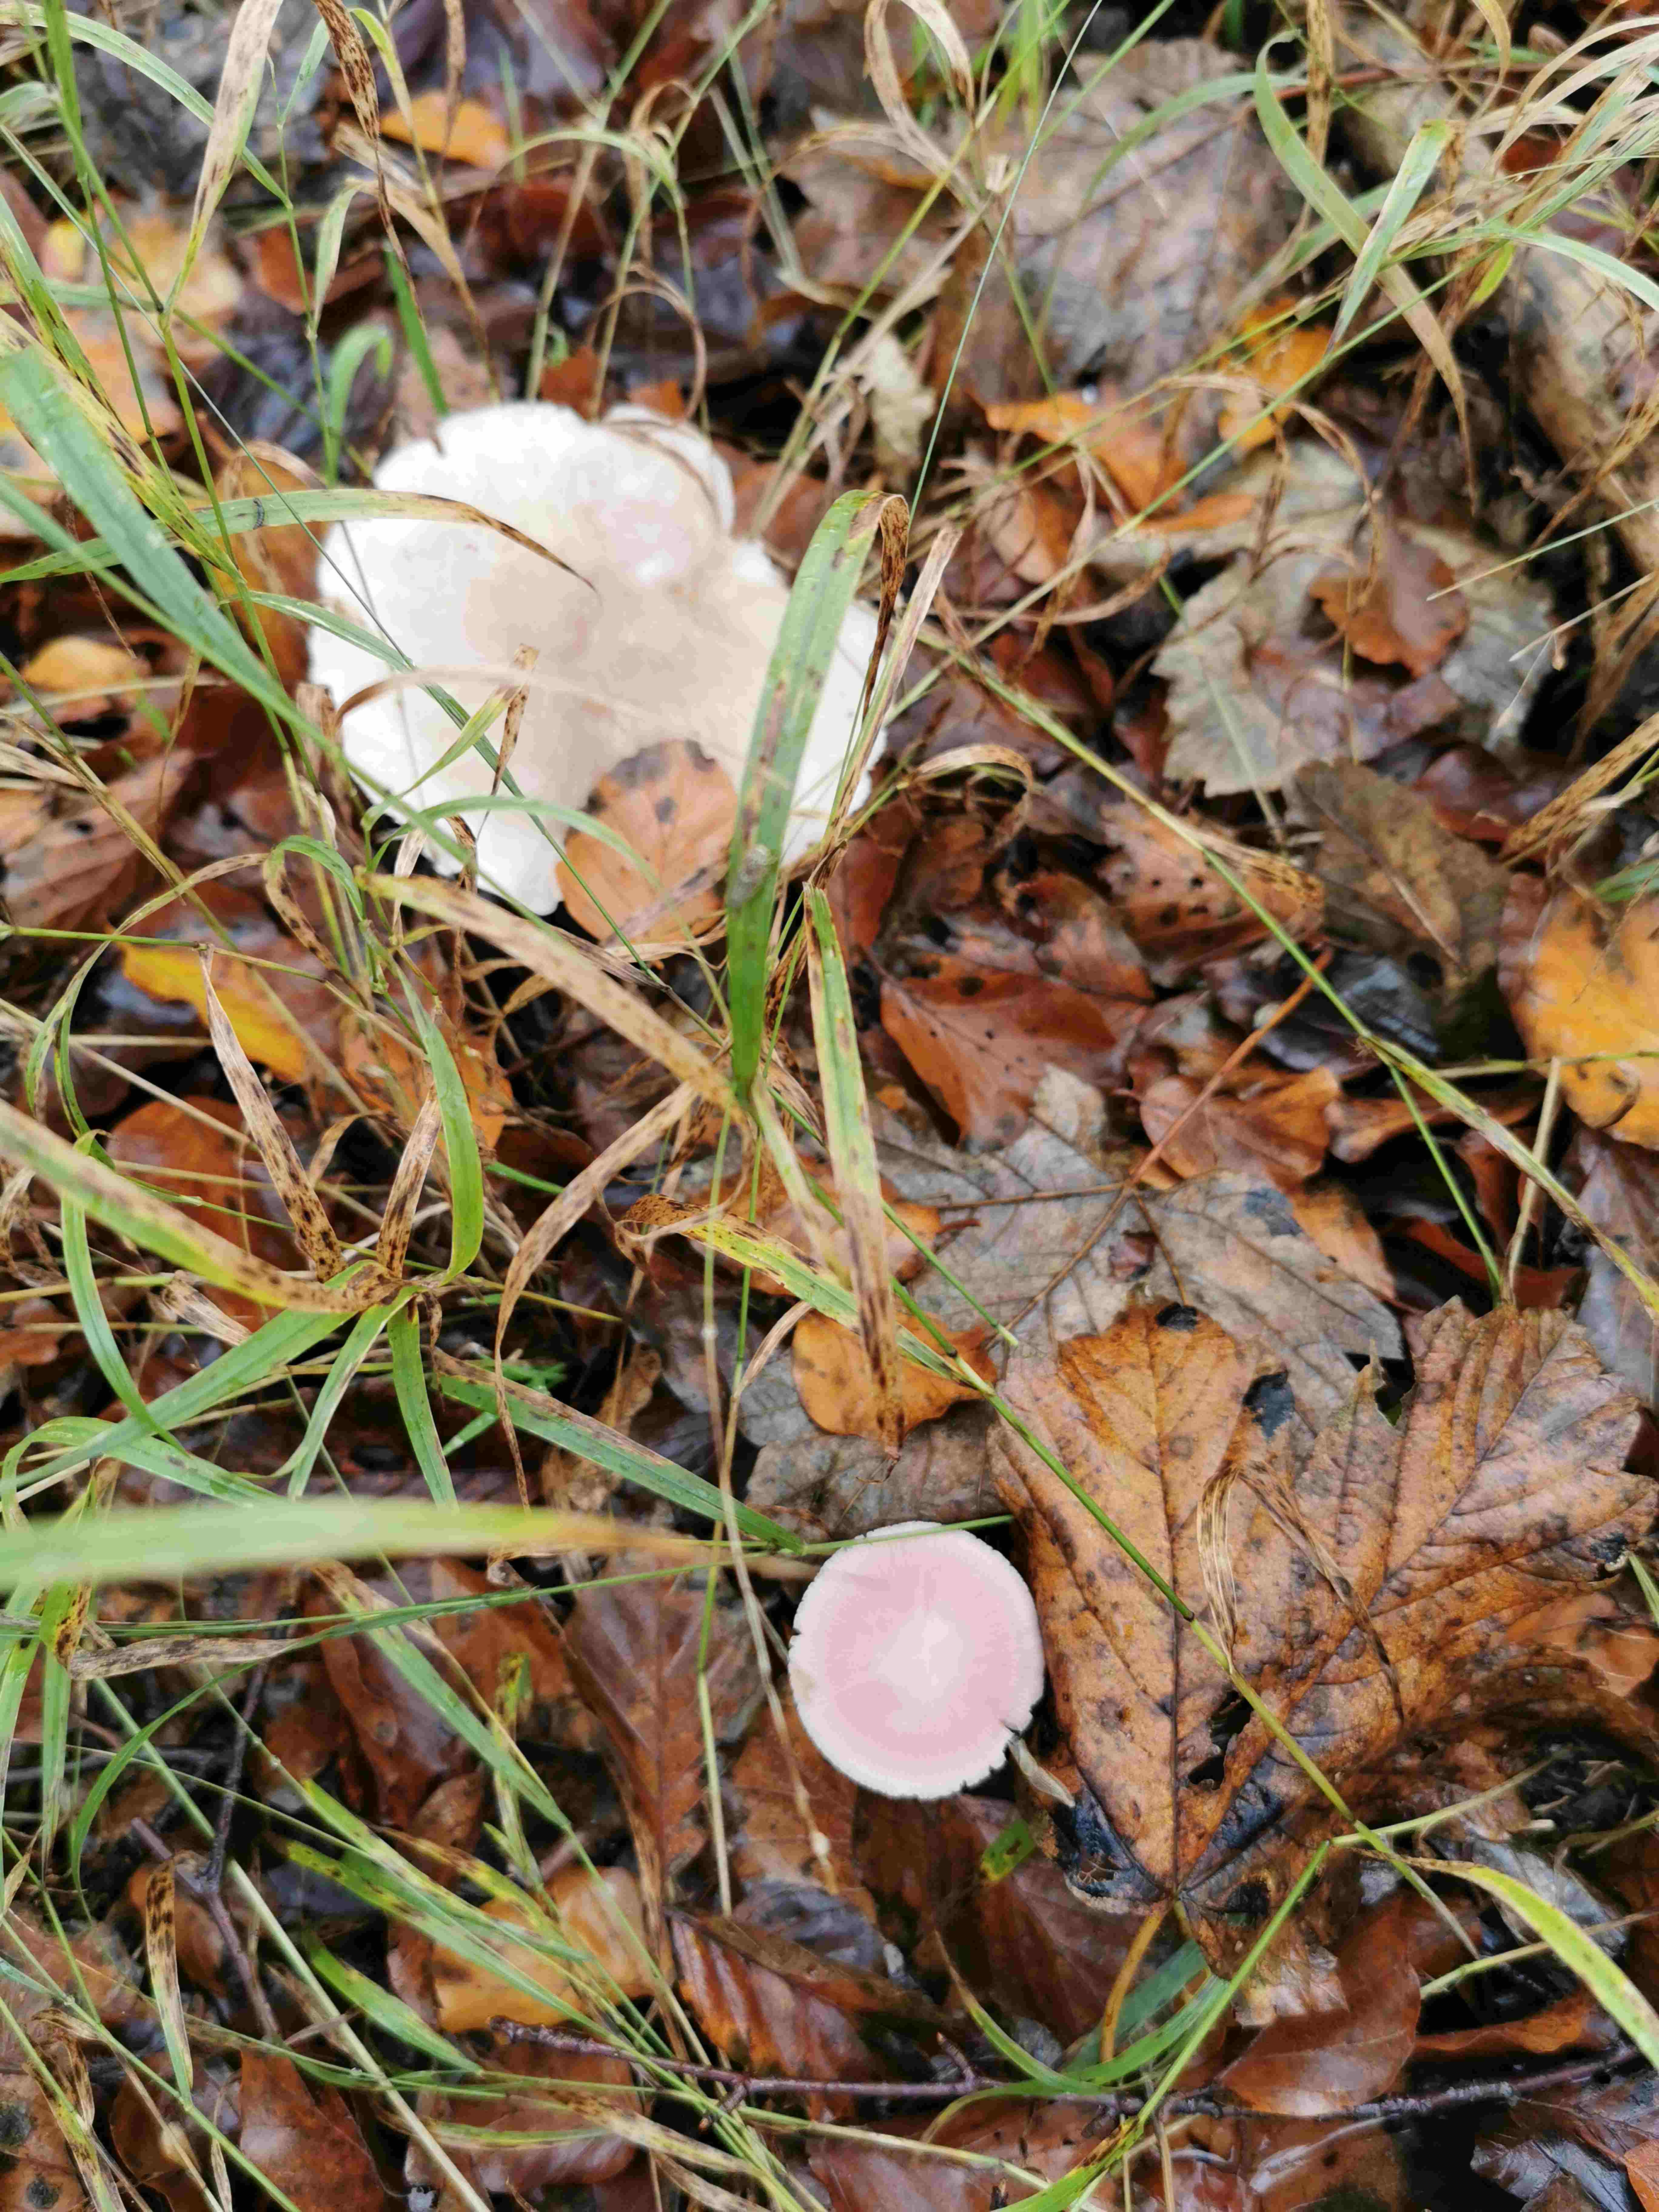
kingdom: Fungi
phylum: Basidiomycota
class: Agaricomycetes
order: Agaricales
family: Mycenaceae
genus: Mycena
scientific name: Mycena
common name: huesvamp
